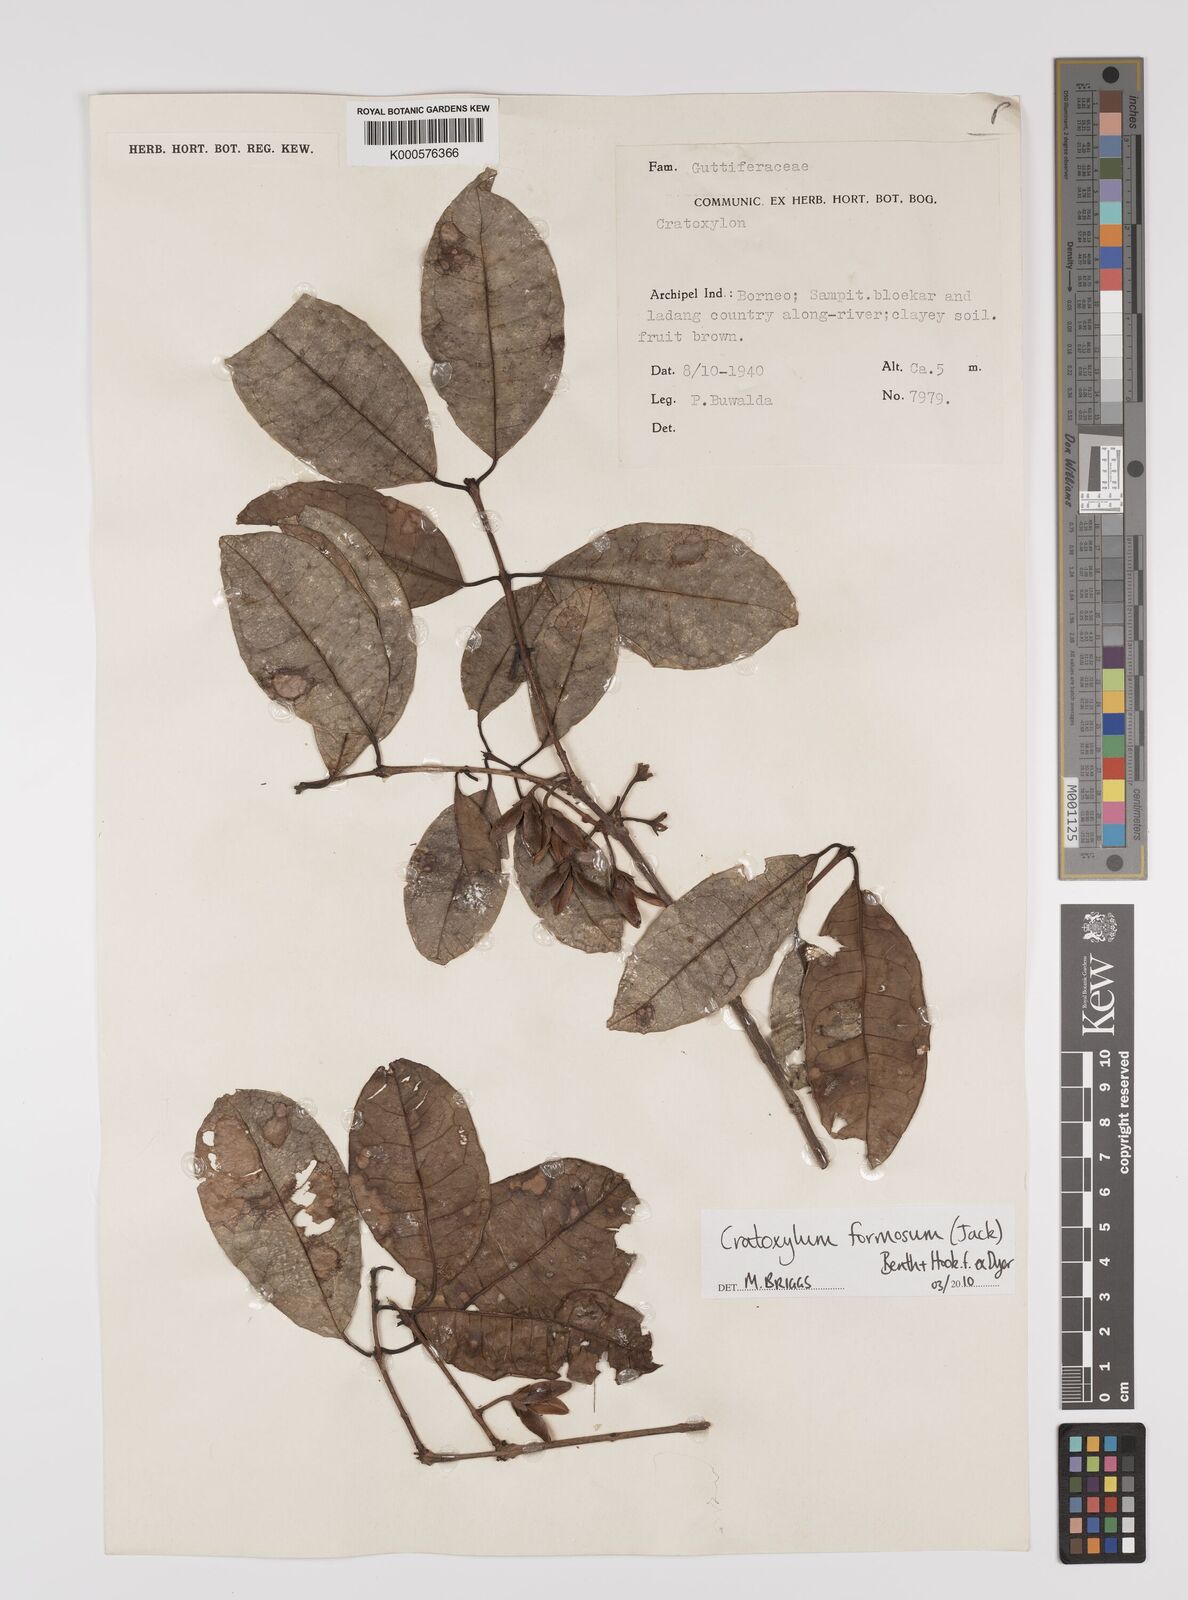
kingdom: Plantae
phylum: Tracheophyta
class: Magnoliopsida
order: Malpighiales
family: Hypericaceae
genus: Cratoxylum
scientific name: Cratoxylum formosum
